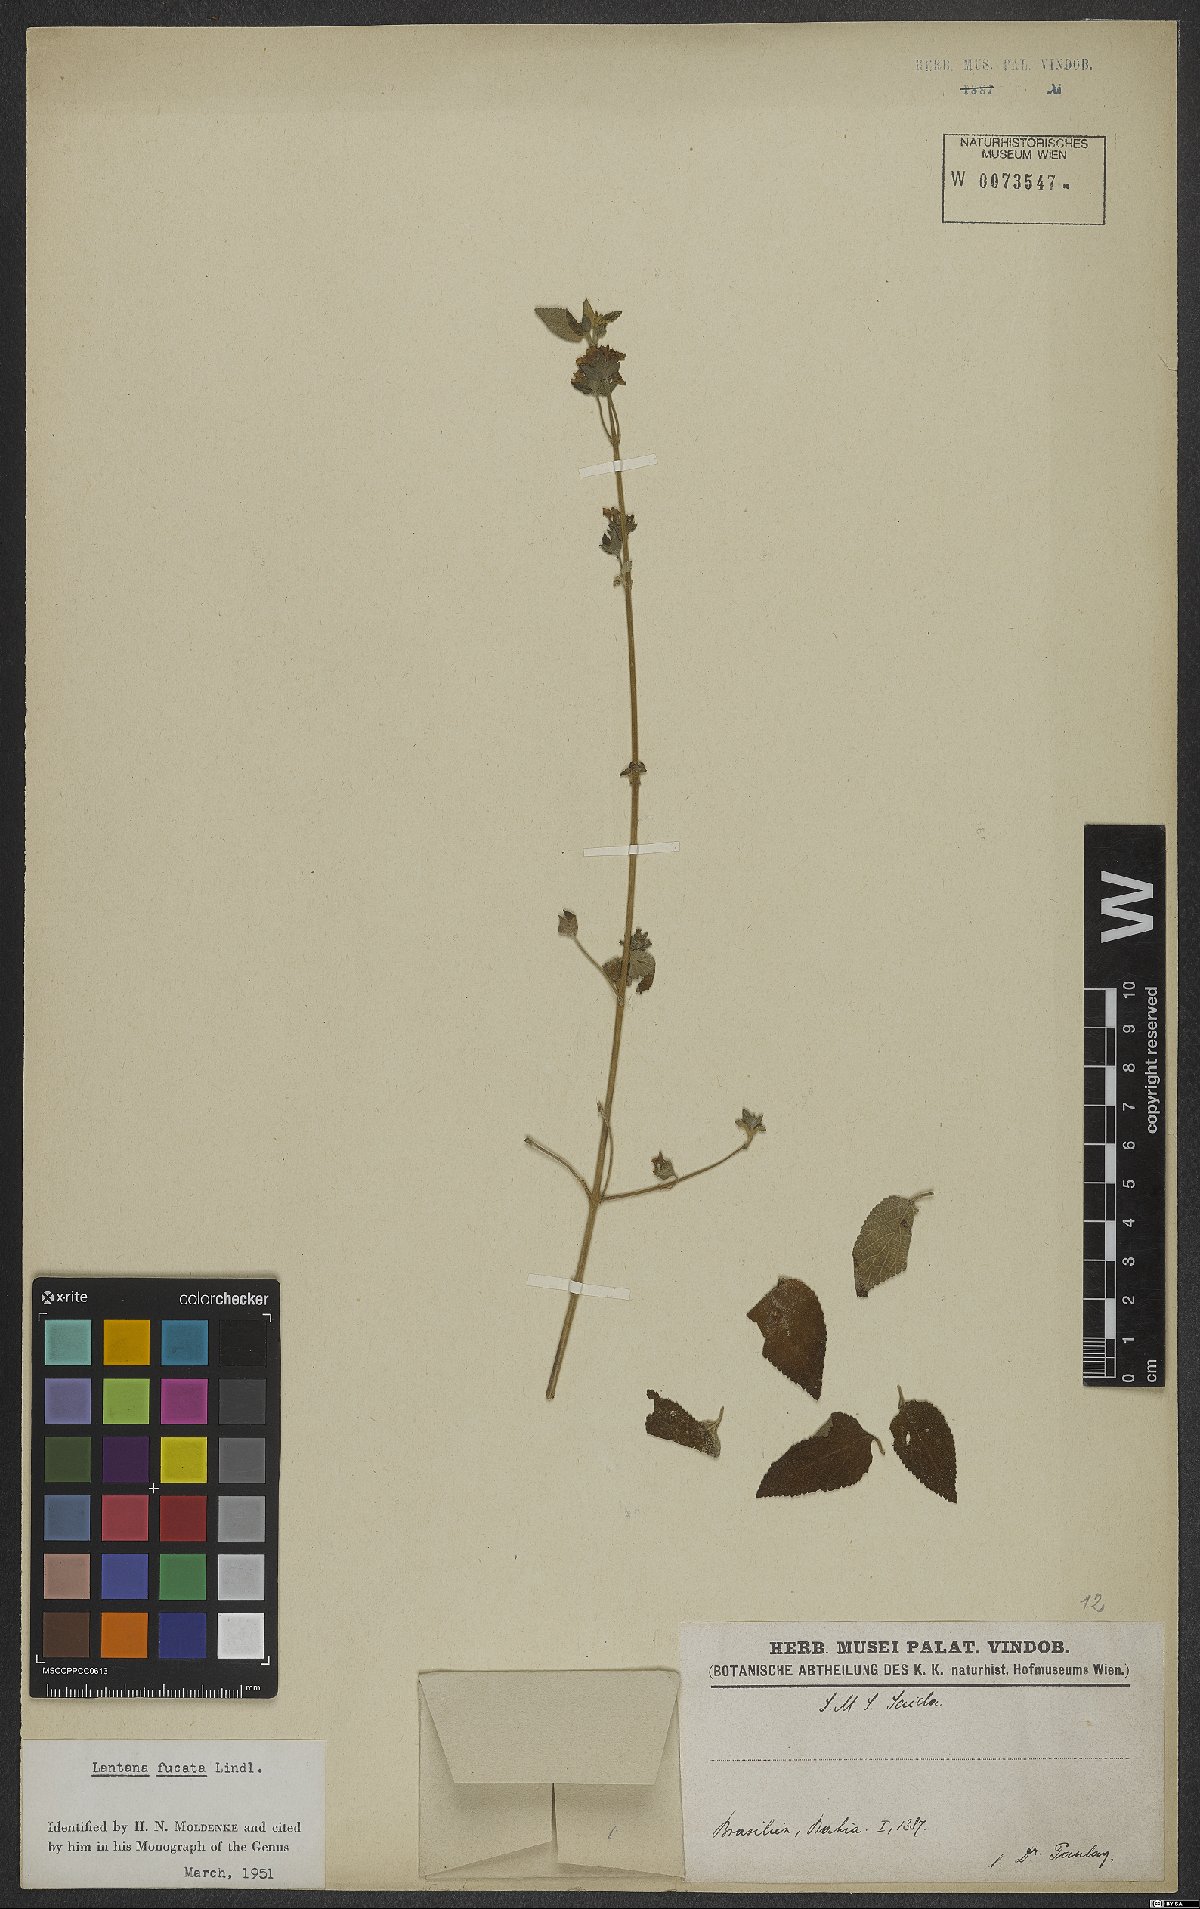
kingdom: Plantae
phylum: Tracheophyta
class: Magnoliopsida
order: Lamiales
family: Verbenaceae
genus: Lantana
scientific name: Lantana fucata
